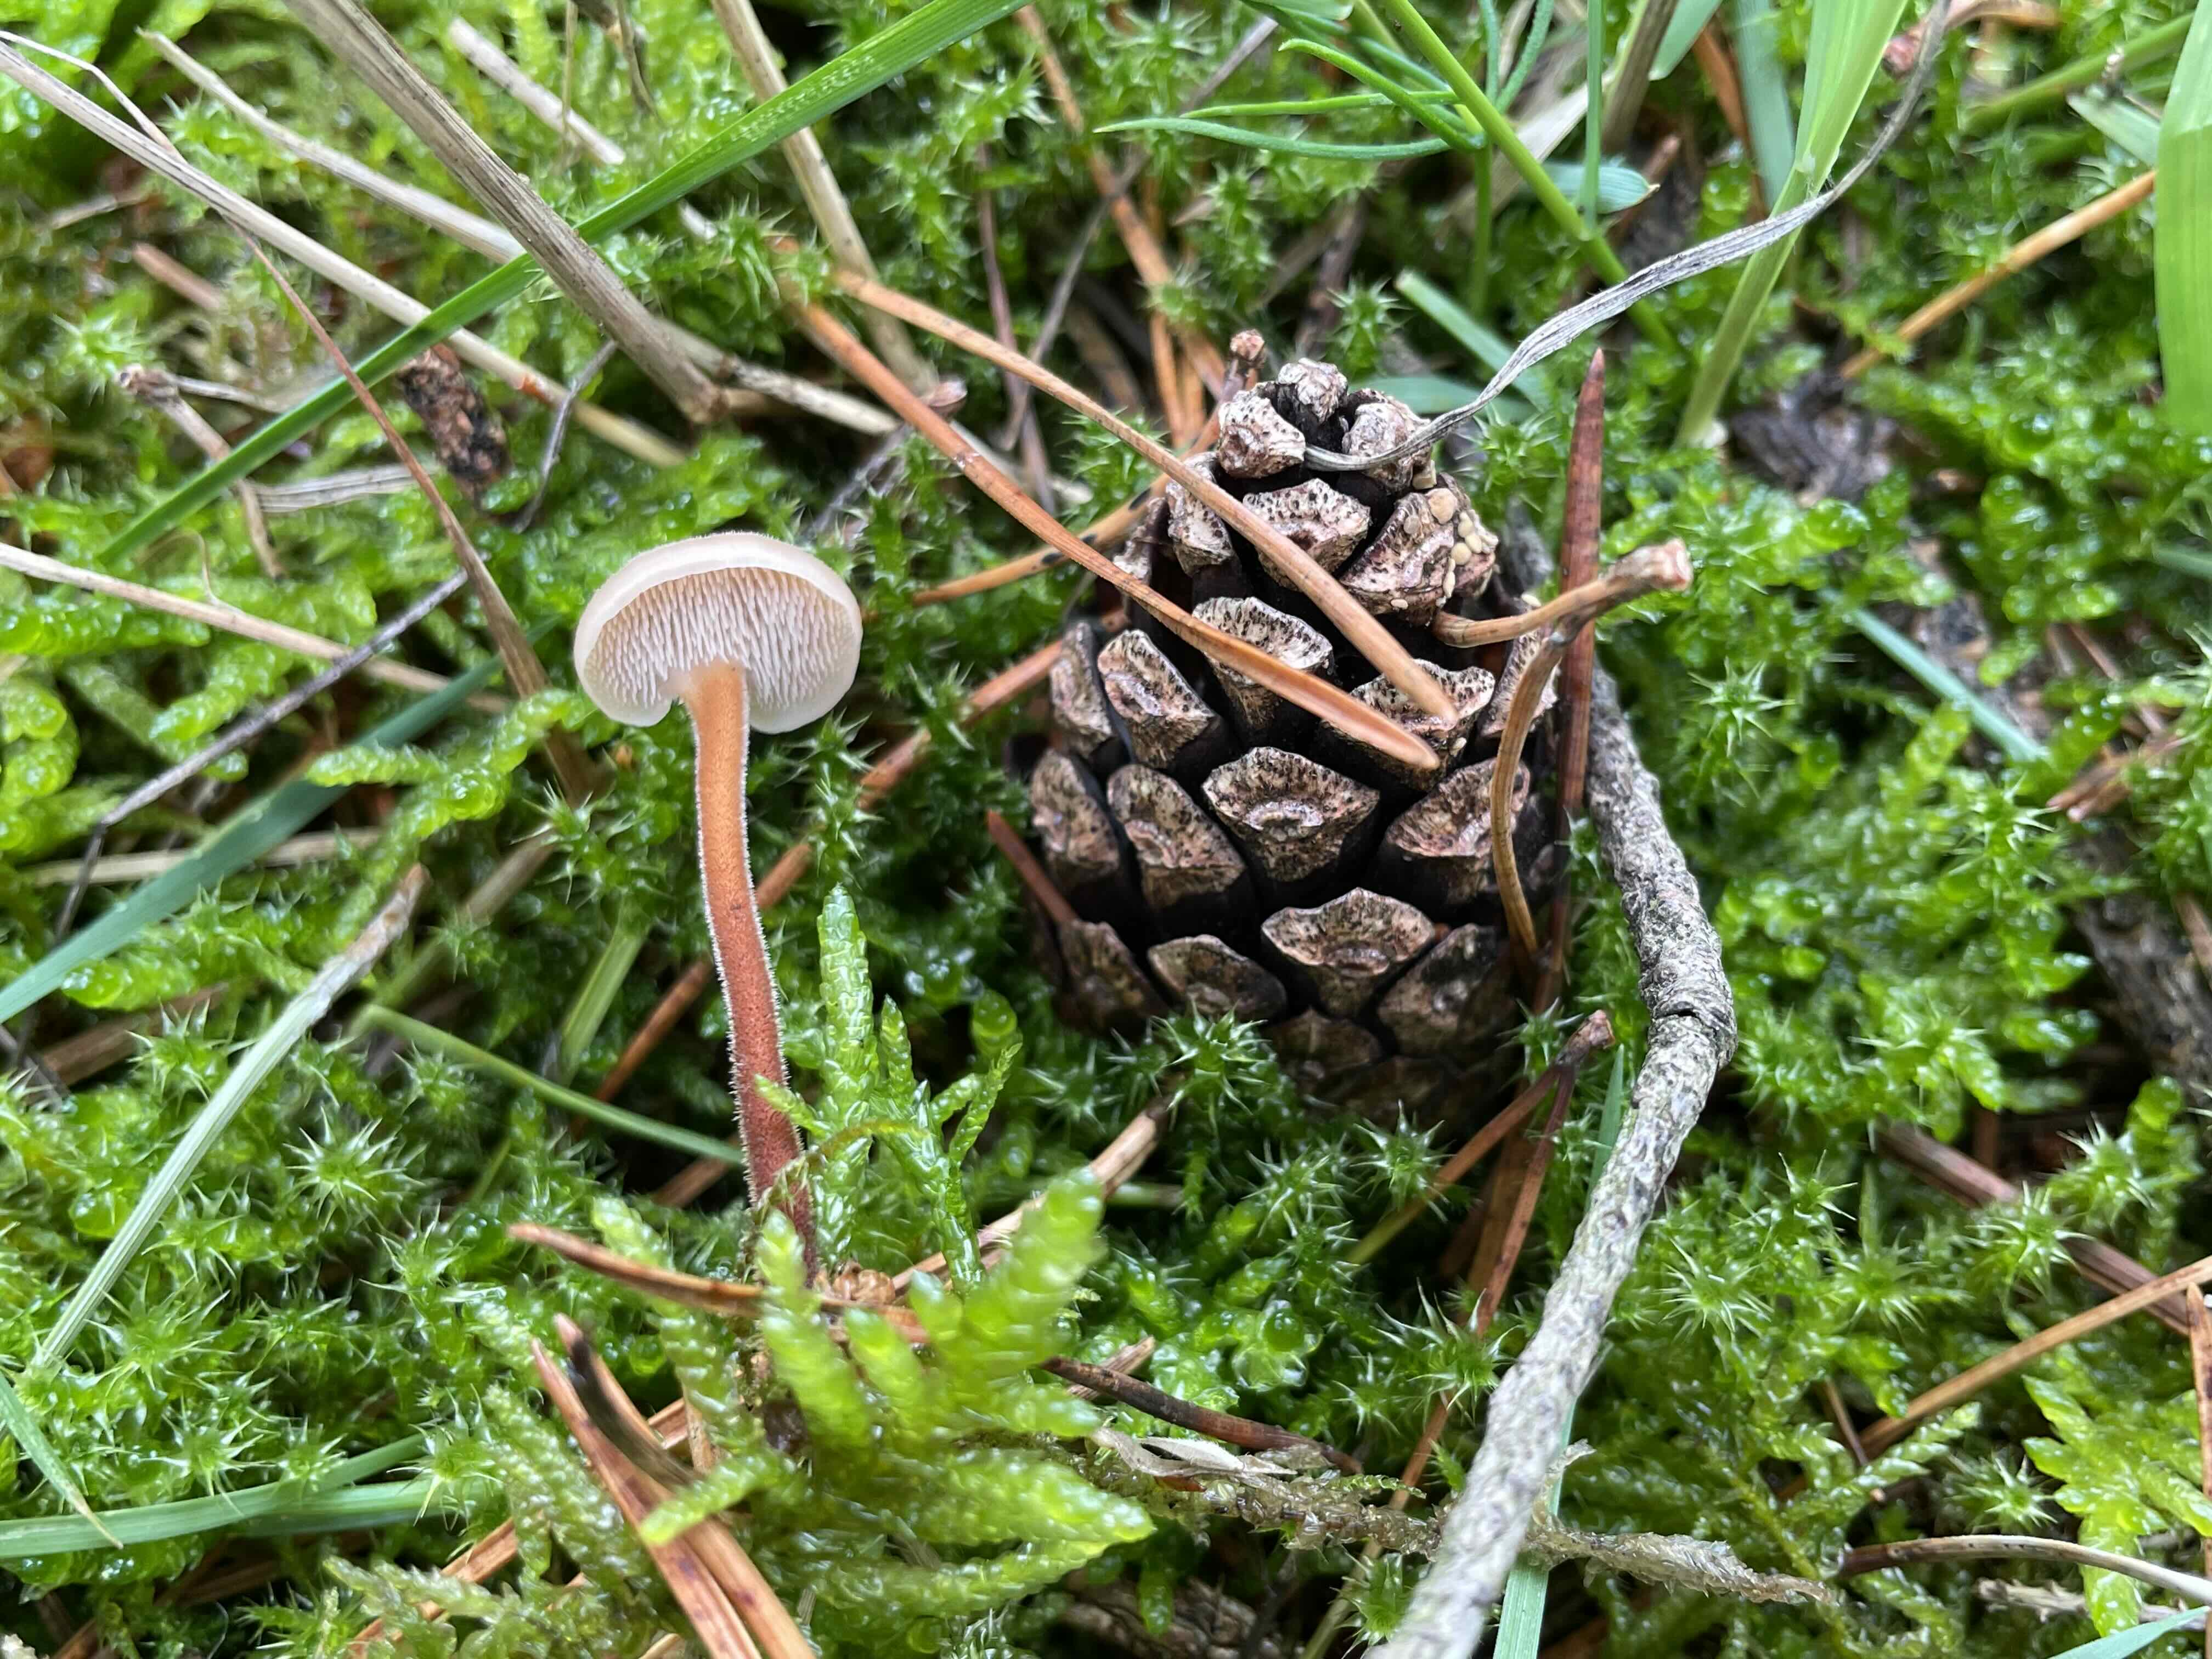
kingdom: Fungi
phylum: Basidiomycota
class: Agaricomycetes
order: Russulales
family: Auriscalpiaceae
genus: Auriscalpium
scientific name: Auriscalpium vulgare
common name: koglepigsvamp
